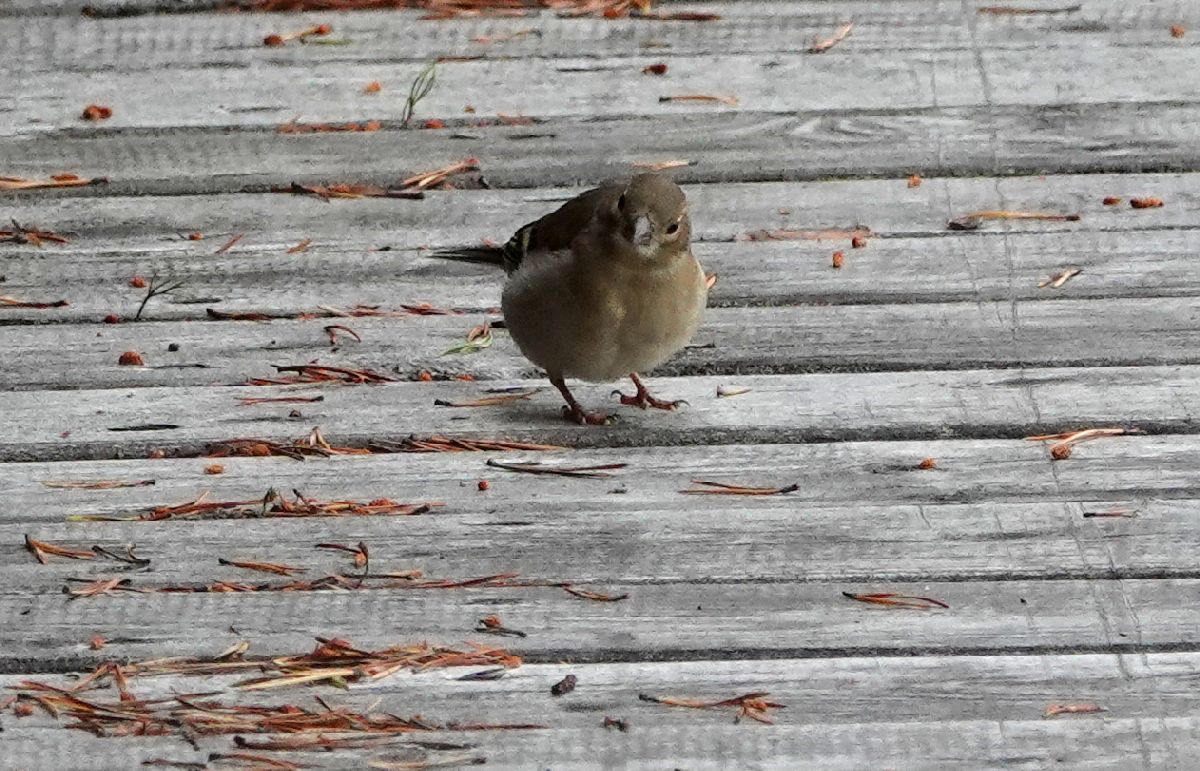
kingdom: Animalia
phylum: Chordata
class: Aves
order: Passeriformes
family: Fringillidae
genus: Fringilla
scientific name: Fringilla coelebs
